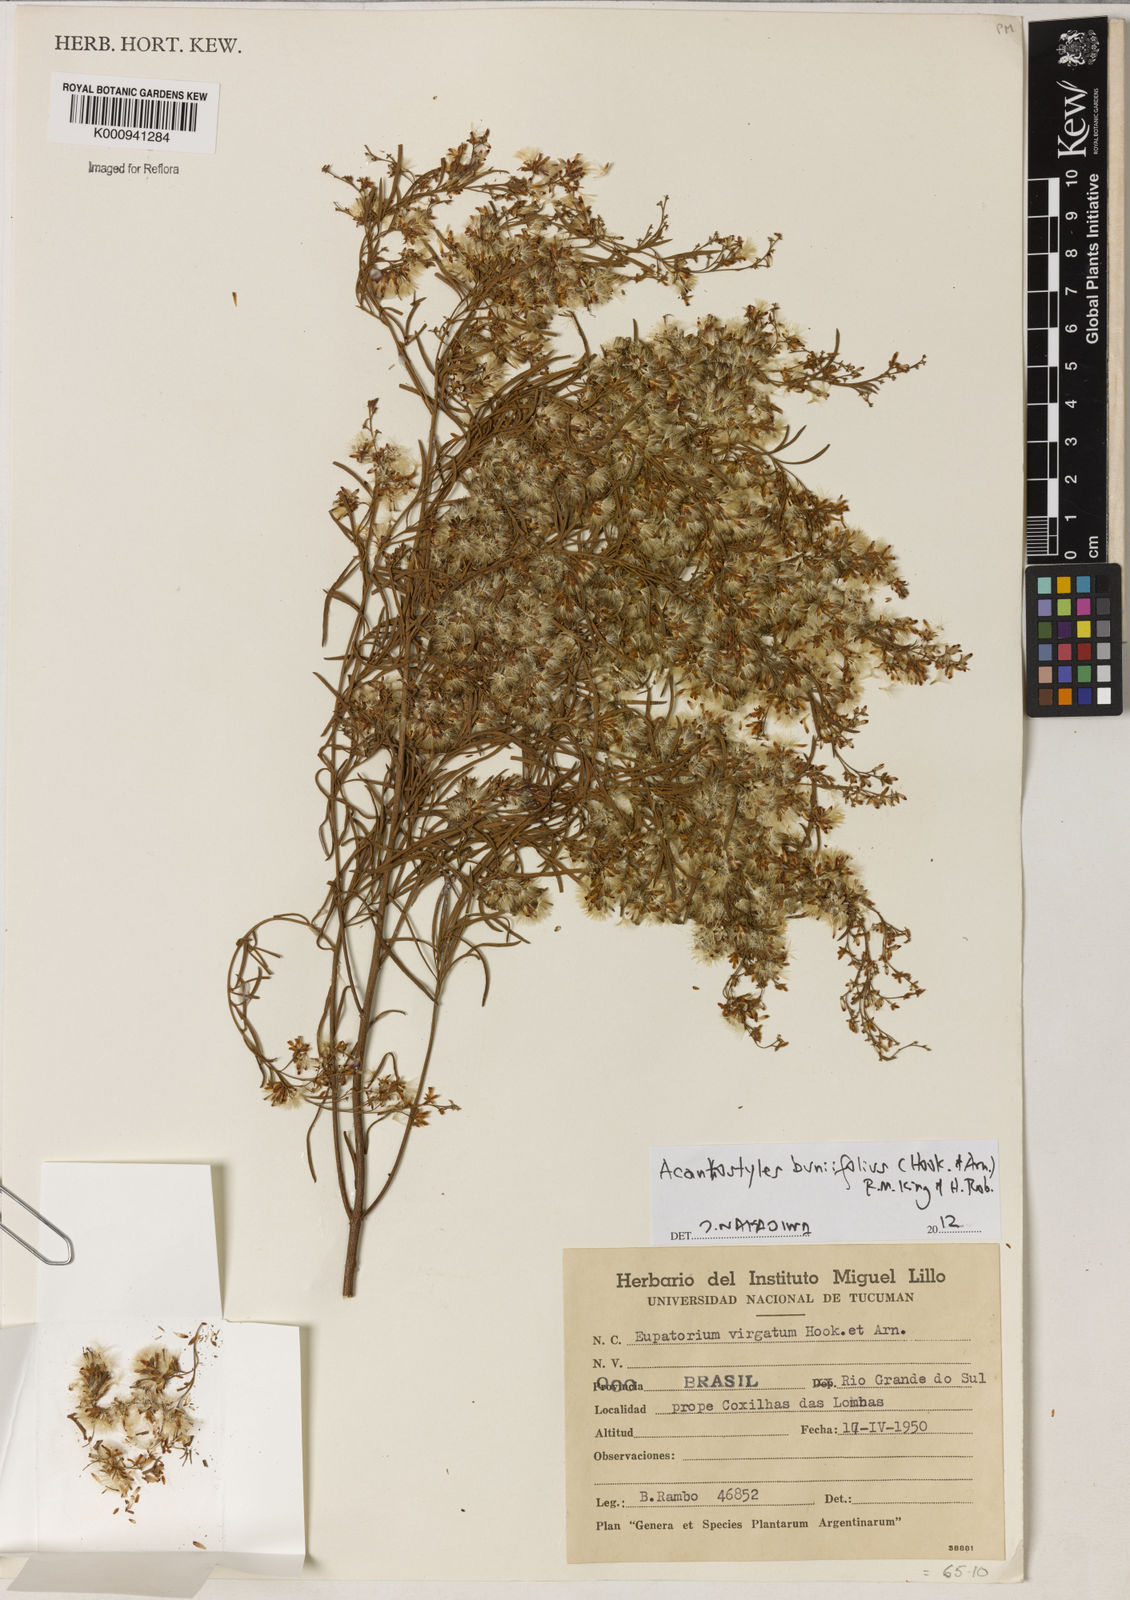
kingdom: Plantae
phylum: Tracheophyta
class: Magnoliopsida
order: Asterales
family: Asteraceae
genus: Acanthostyles
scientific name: Acanthostyles buniifolius
